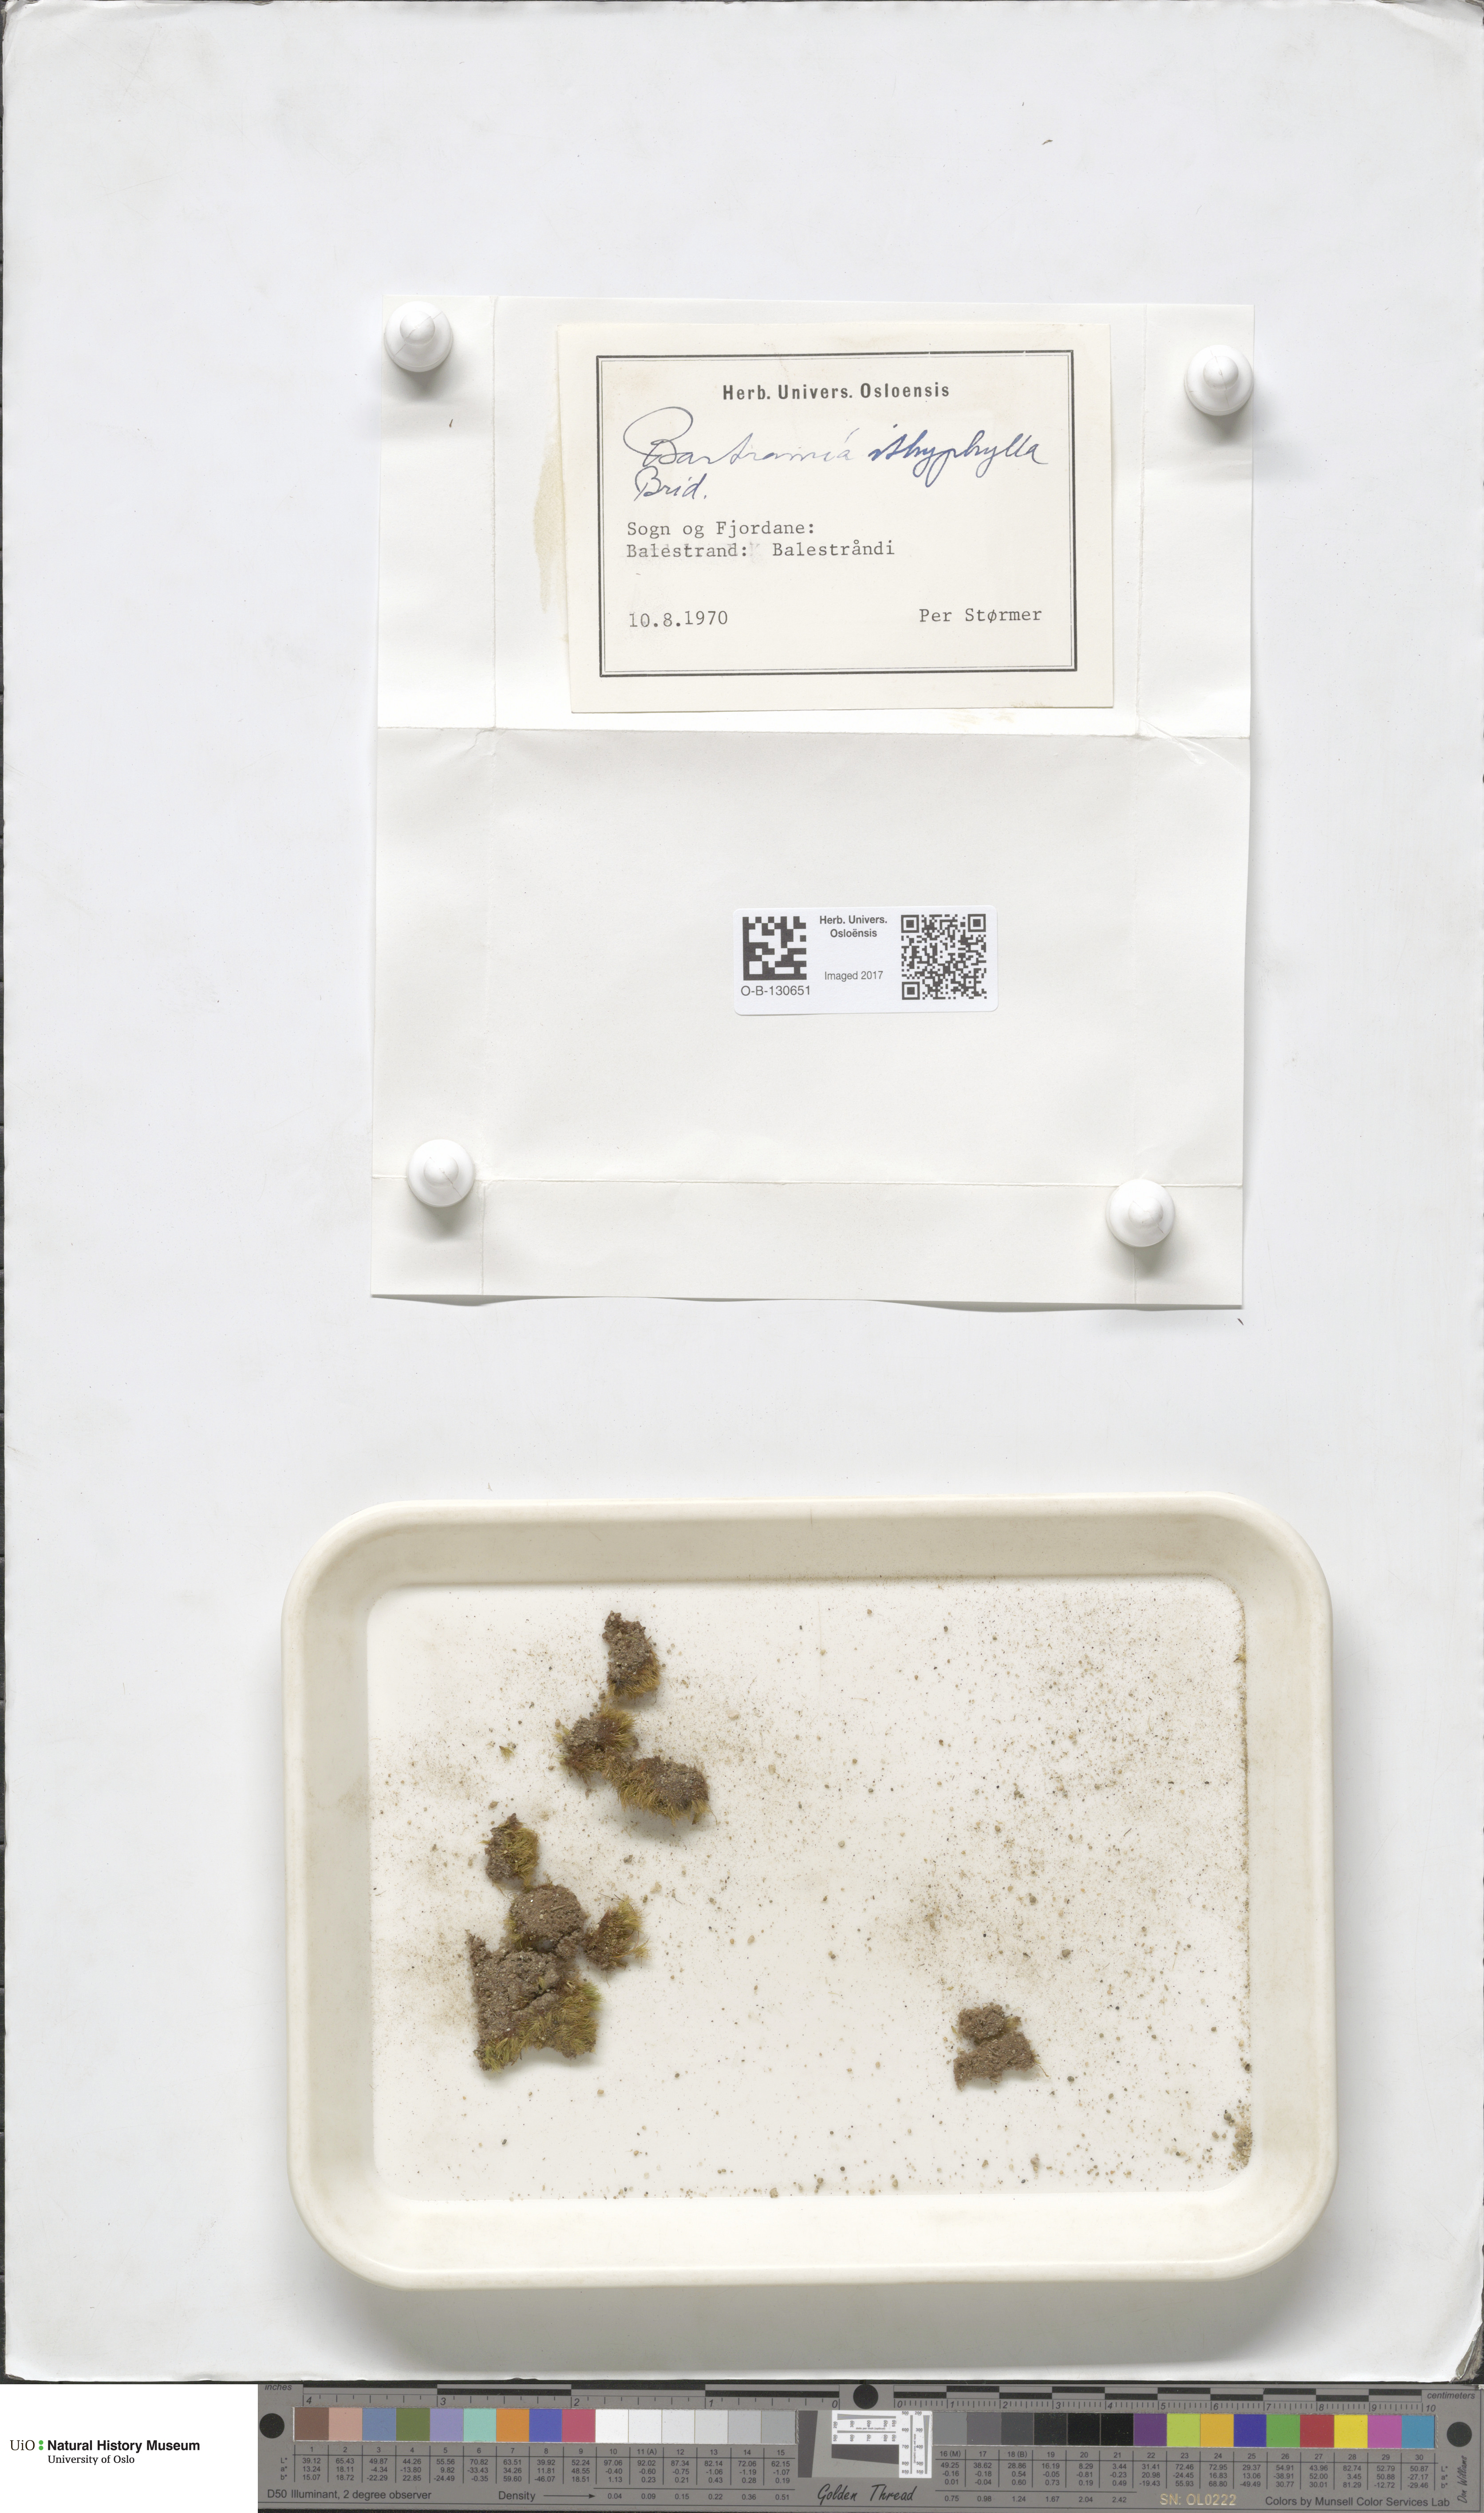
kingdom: Plantae
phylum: Bryophyta
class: Bryopsida
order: Bartramiales
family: Bartramiaceae
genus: Bartramia
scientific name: Bartramia ithyphylla
